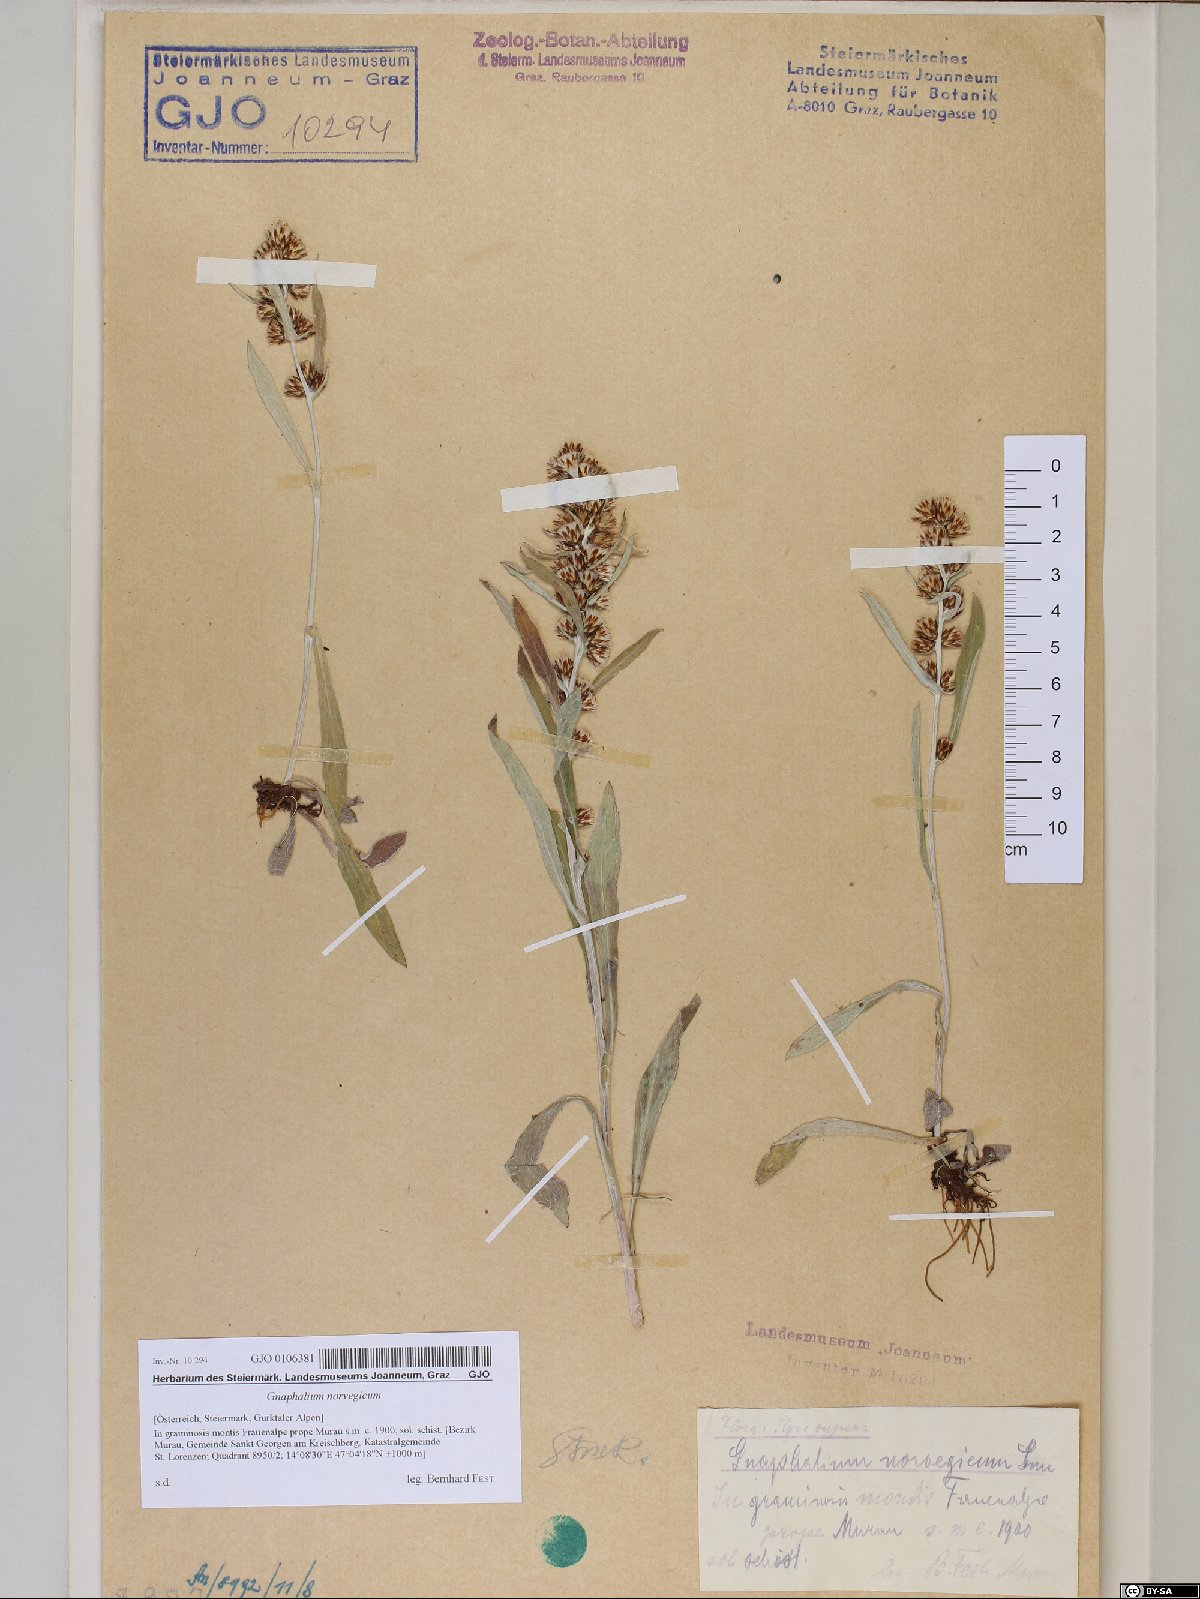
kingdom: Plantae
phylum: Tracheophyta
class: Magnoliopsida
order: Asterales
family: Asteraceae
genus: Omalotheca
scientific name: Omalotheca norvegica
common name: Norwegian arctic-cudweed
